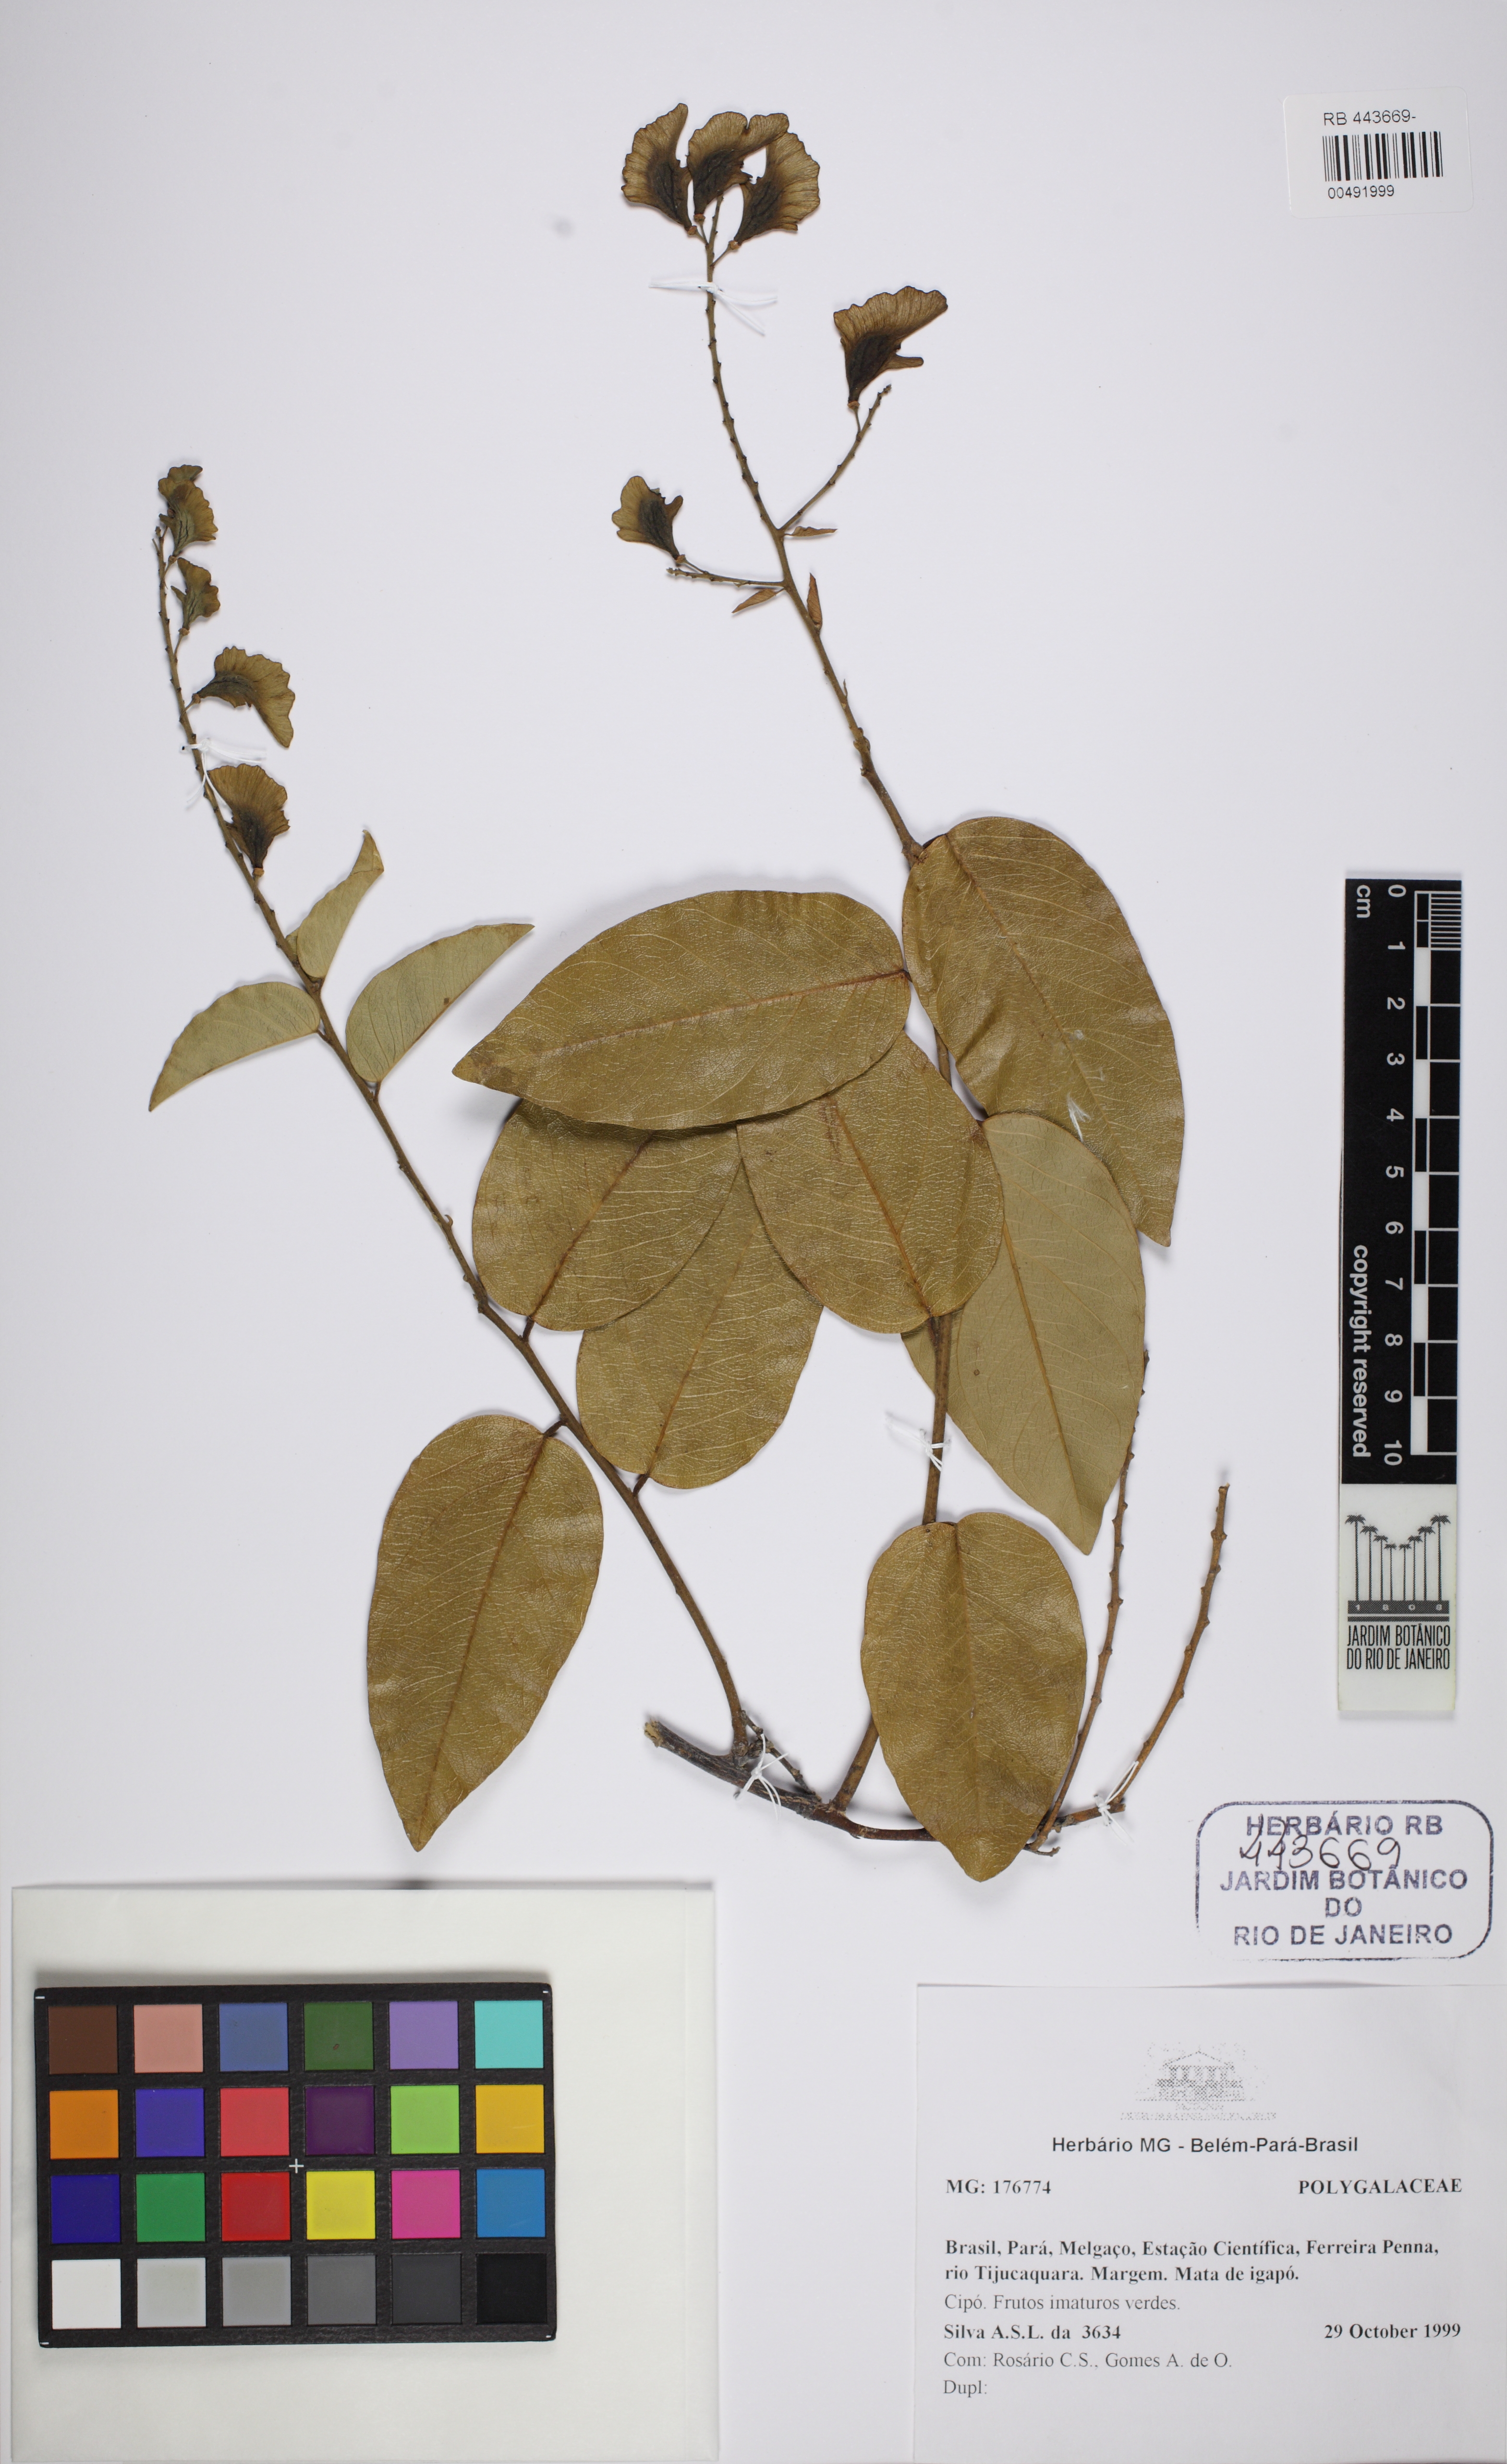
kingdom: Plantae
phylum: Tracheophyta
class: Magnoliopsida
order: Fabales
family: Polygalaceae
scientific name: Polygalaceae
